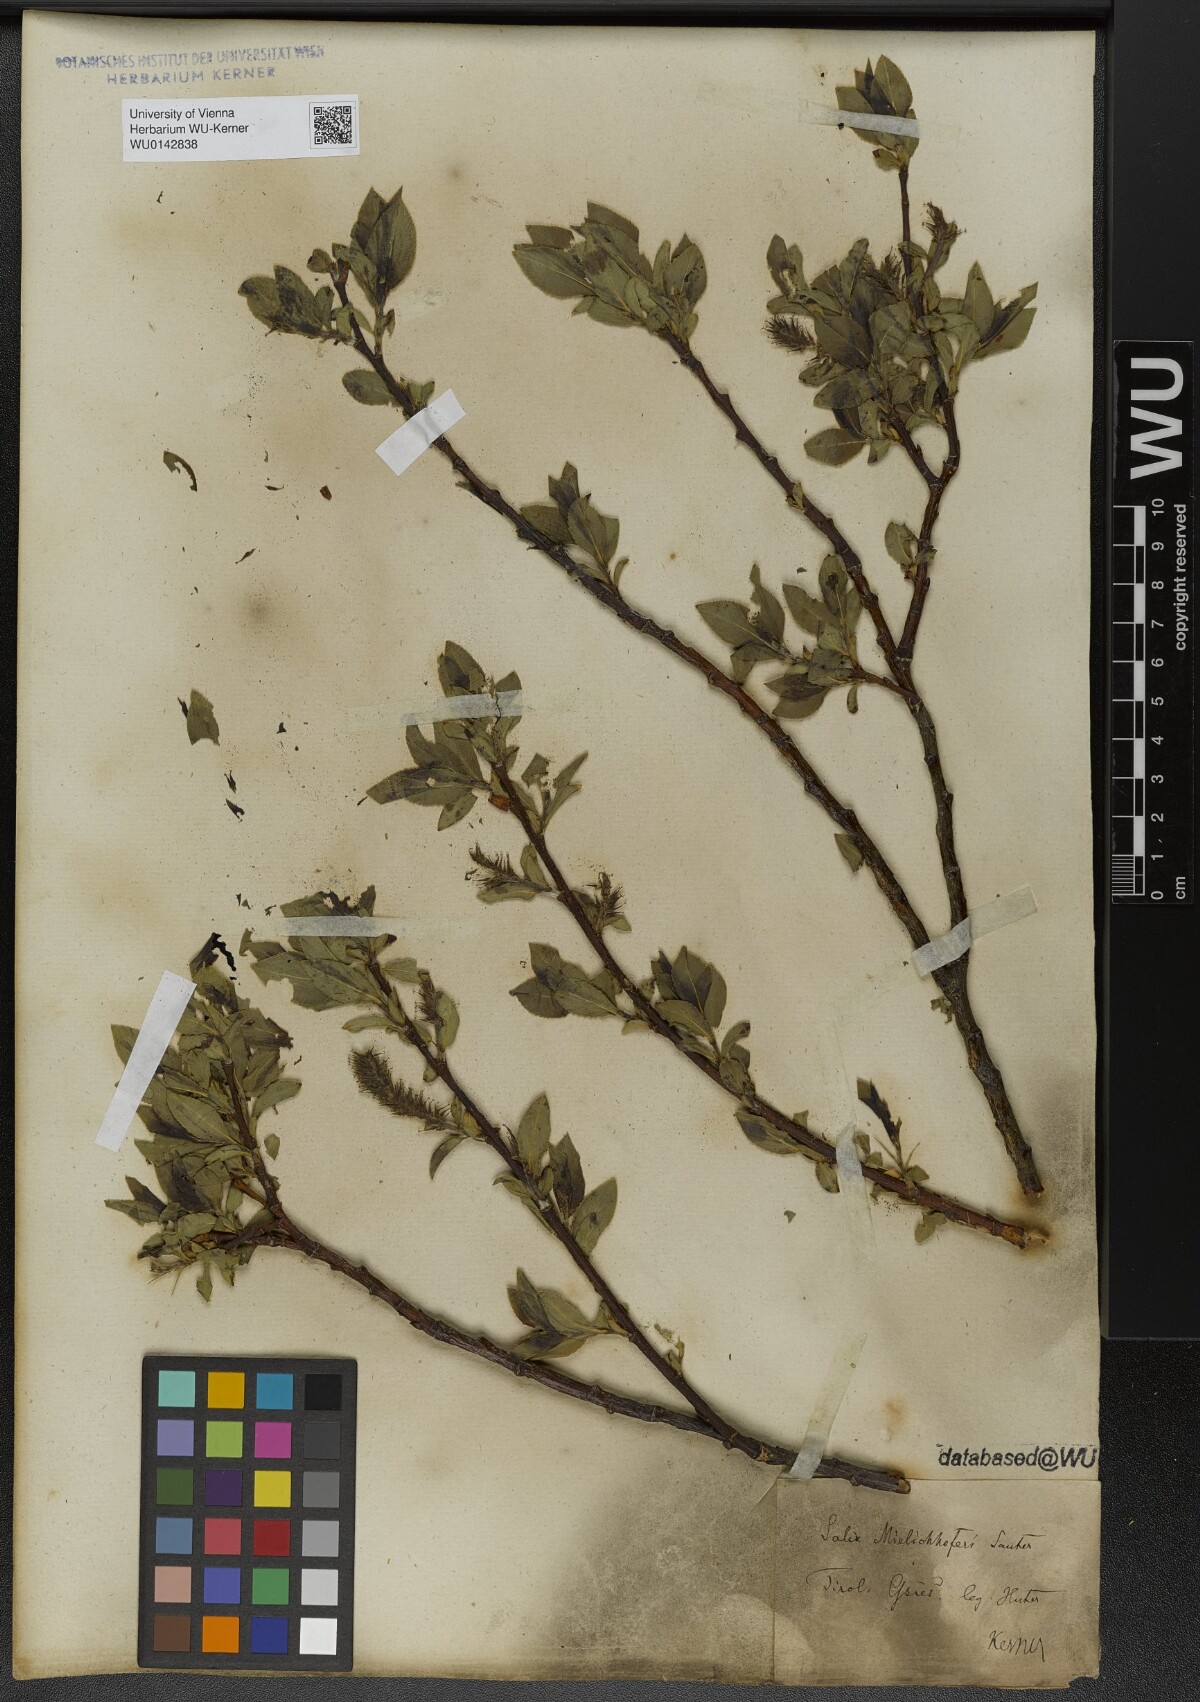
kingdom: Plantae
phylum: Tracheophyta
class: Magnoliopsida
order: Malpighiales
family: Salicaceae
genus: Salix
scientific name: Salix mielichhoferi
